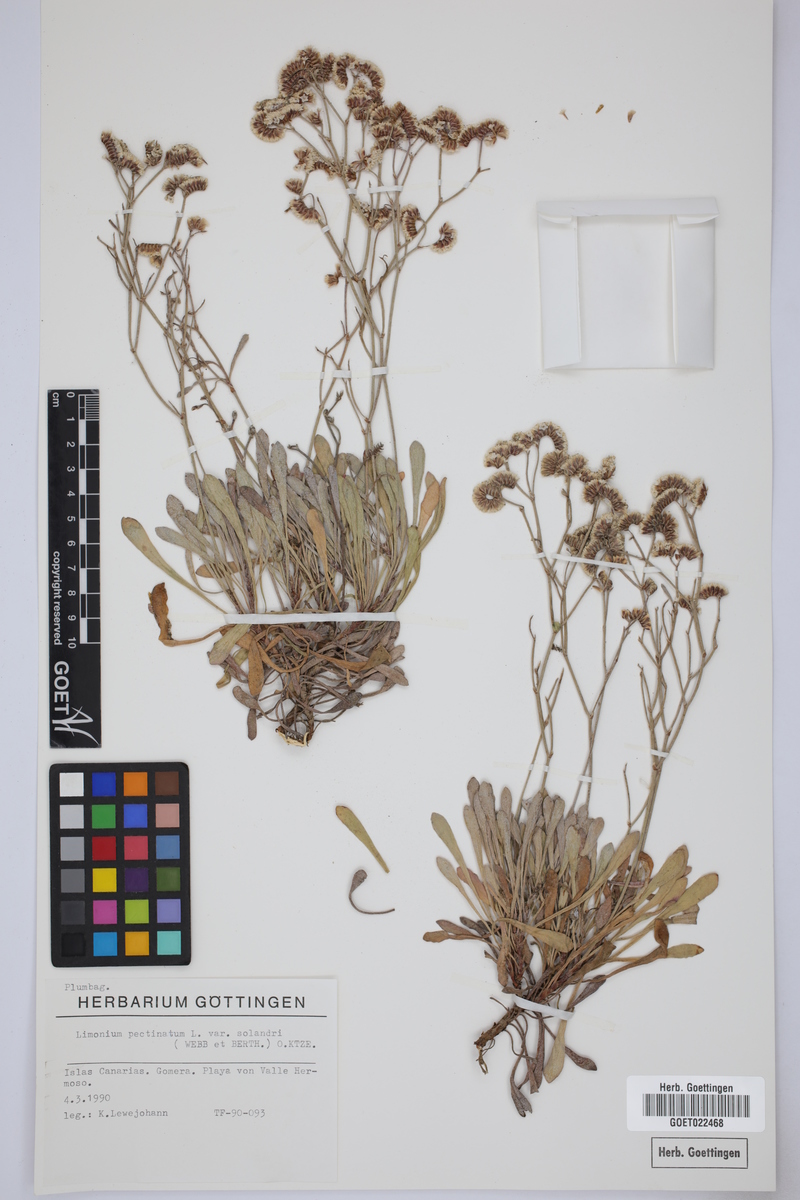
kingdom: Plantae
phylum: Tracheophyta
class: Magnoliopsida
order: Caryophyllales
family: Plumbaginaceae
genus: Limonium
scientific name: Limonium pectinatum
